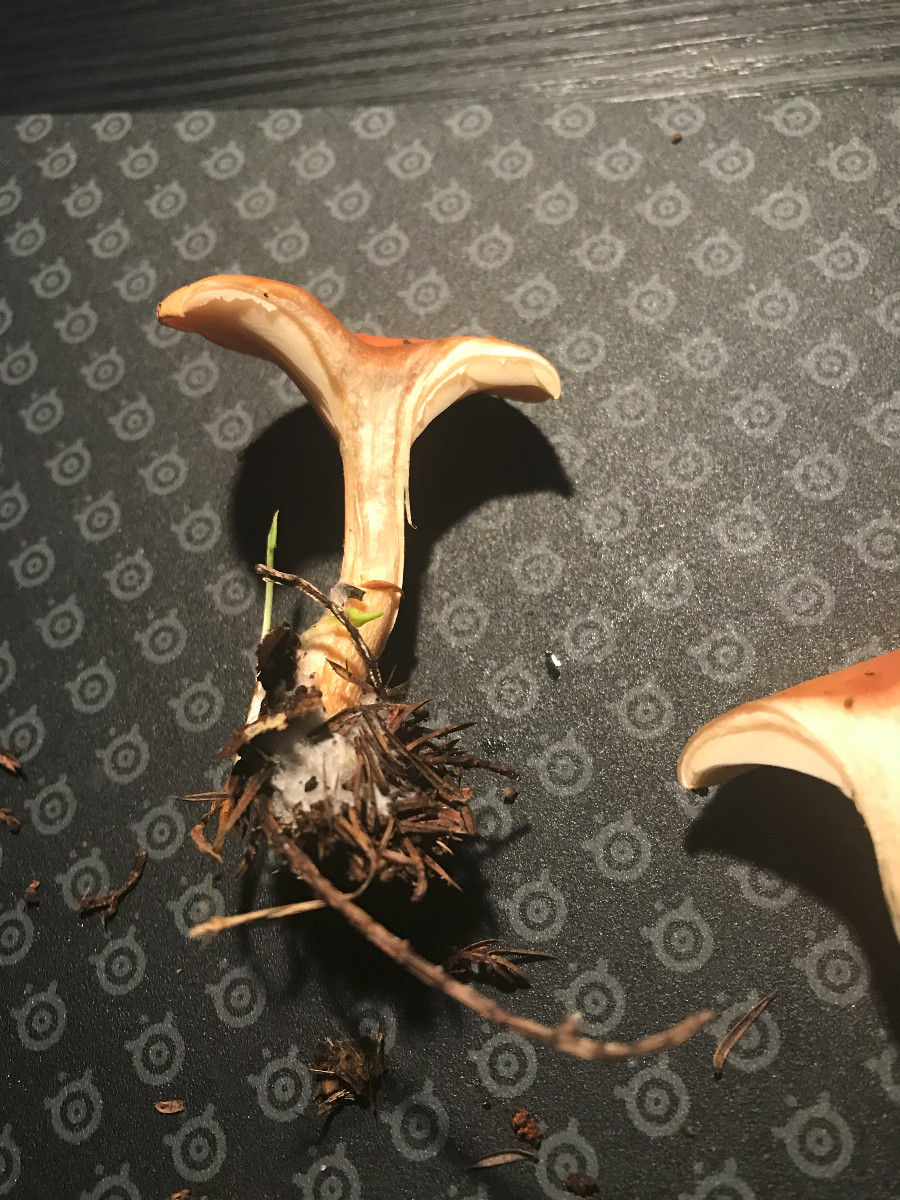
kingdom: Fungi
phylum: Basidiomycota
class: Agaricomycetes
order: Agaricales
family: Tricholomataceae
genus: Paralepista
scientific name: Paralepista flaccida
